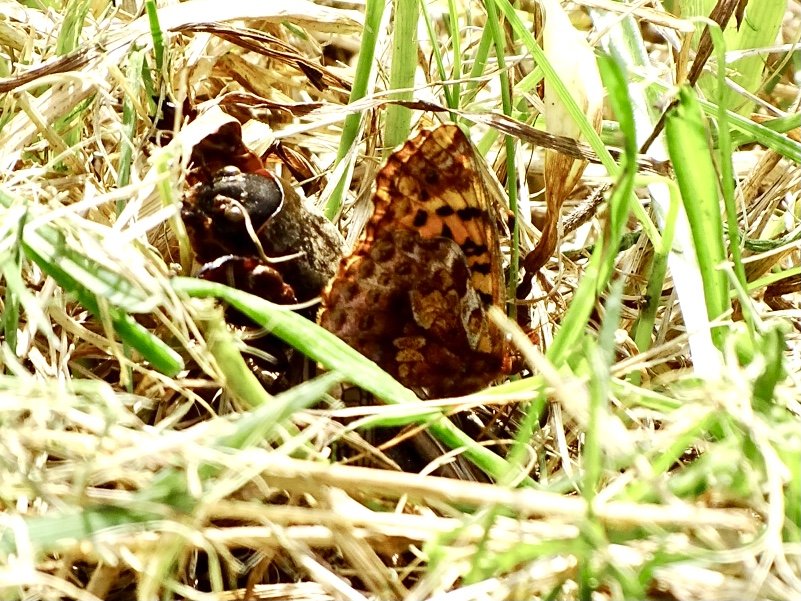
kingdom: Animalia
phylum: Arthropoda
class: Insecta
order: Lepidoptera
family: Nymphalidae
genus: Clossiana
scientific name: Clossiana toddi
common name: Meadow Fritillary
